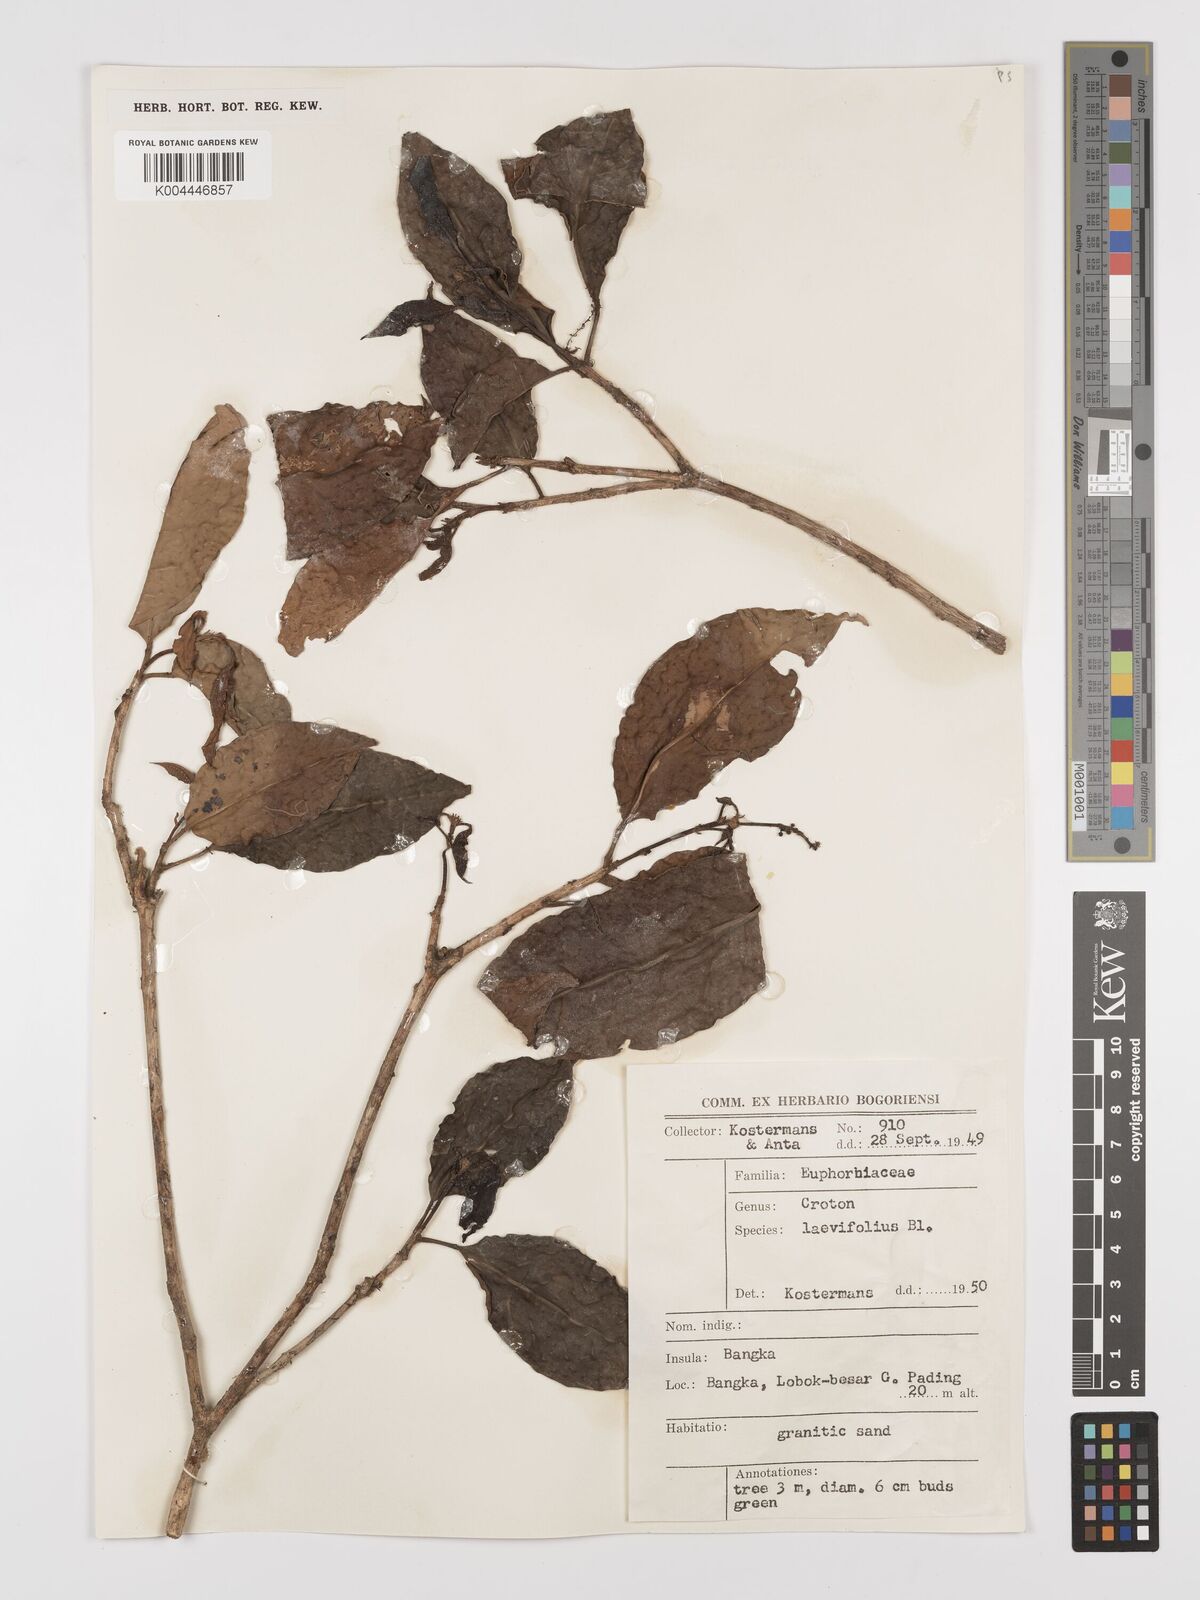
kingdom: Plantae
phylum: Tracheophyta
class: Magnoliopsida
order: Malpighiales
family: Euphorbiaceae
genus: Croton
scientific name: Croton oblongus
